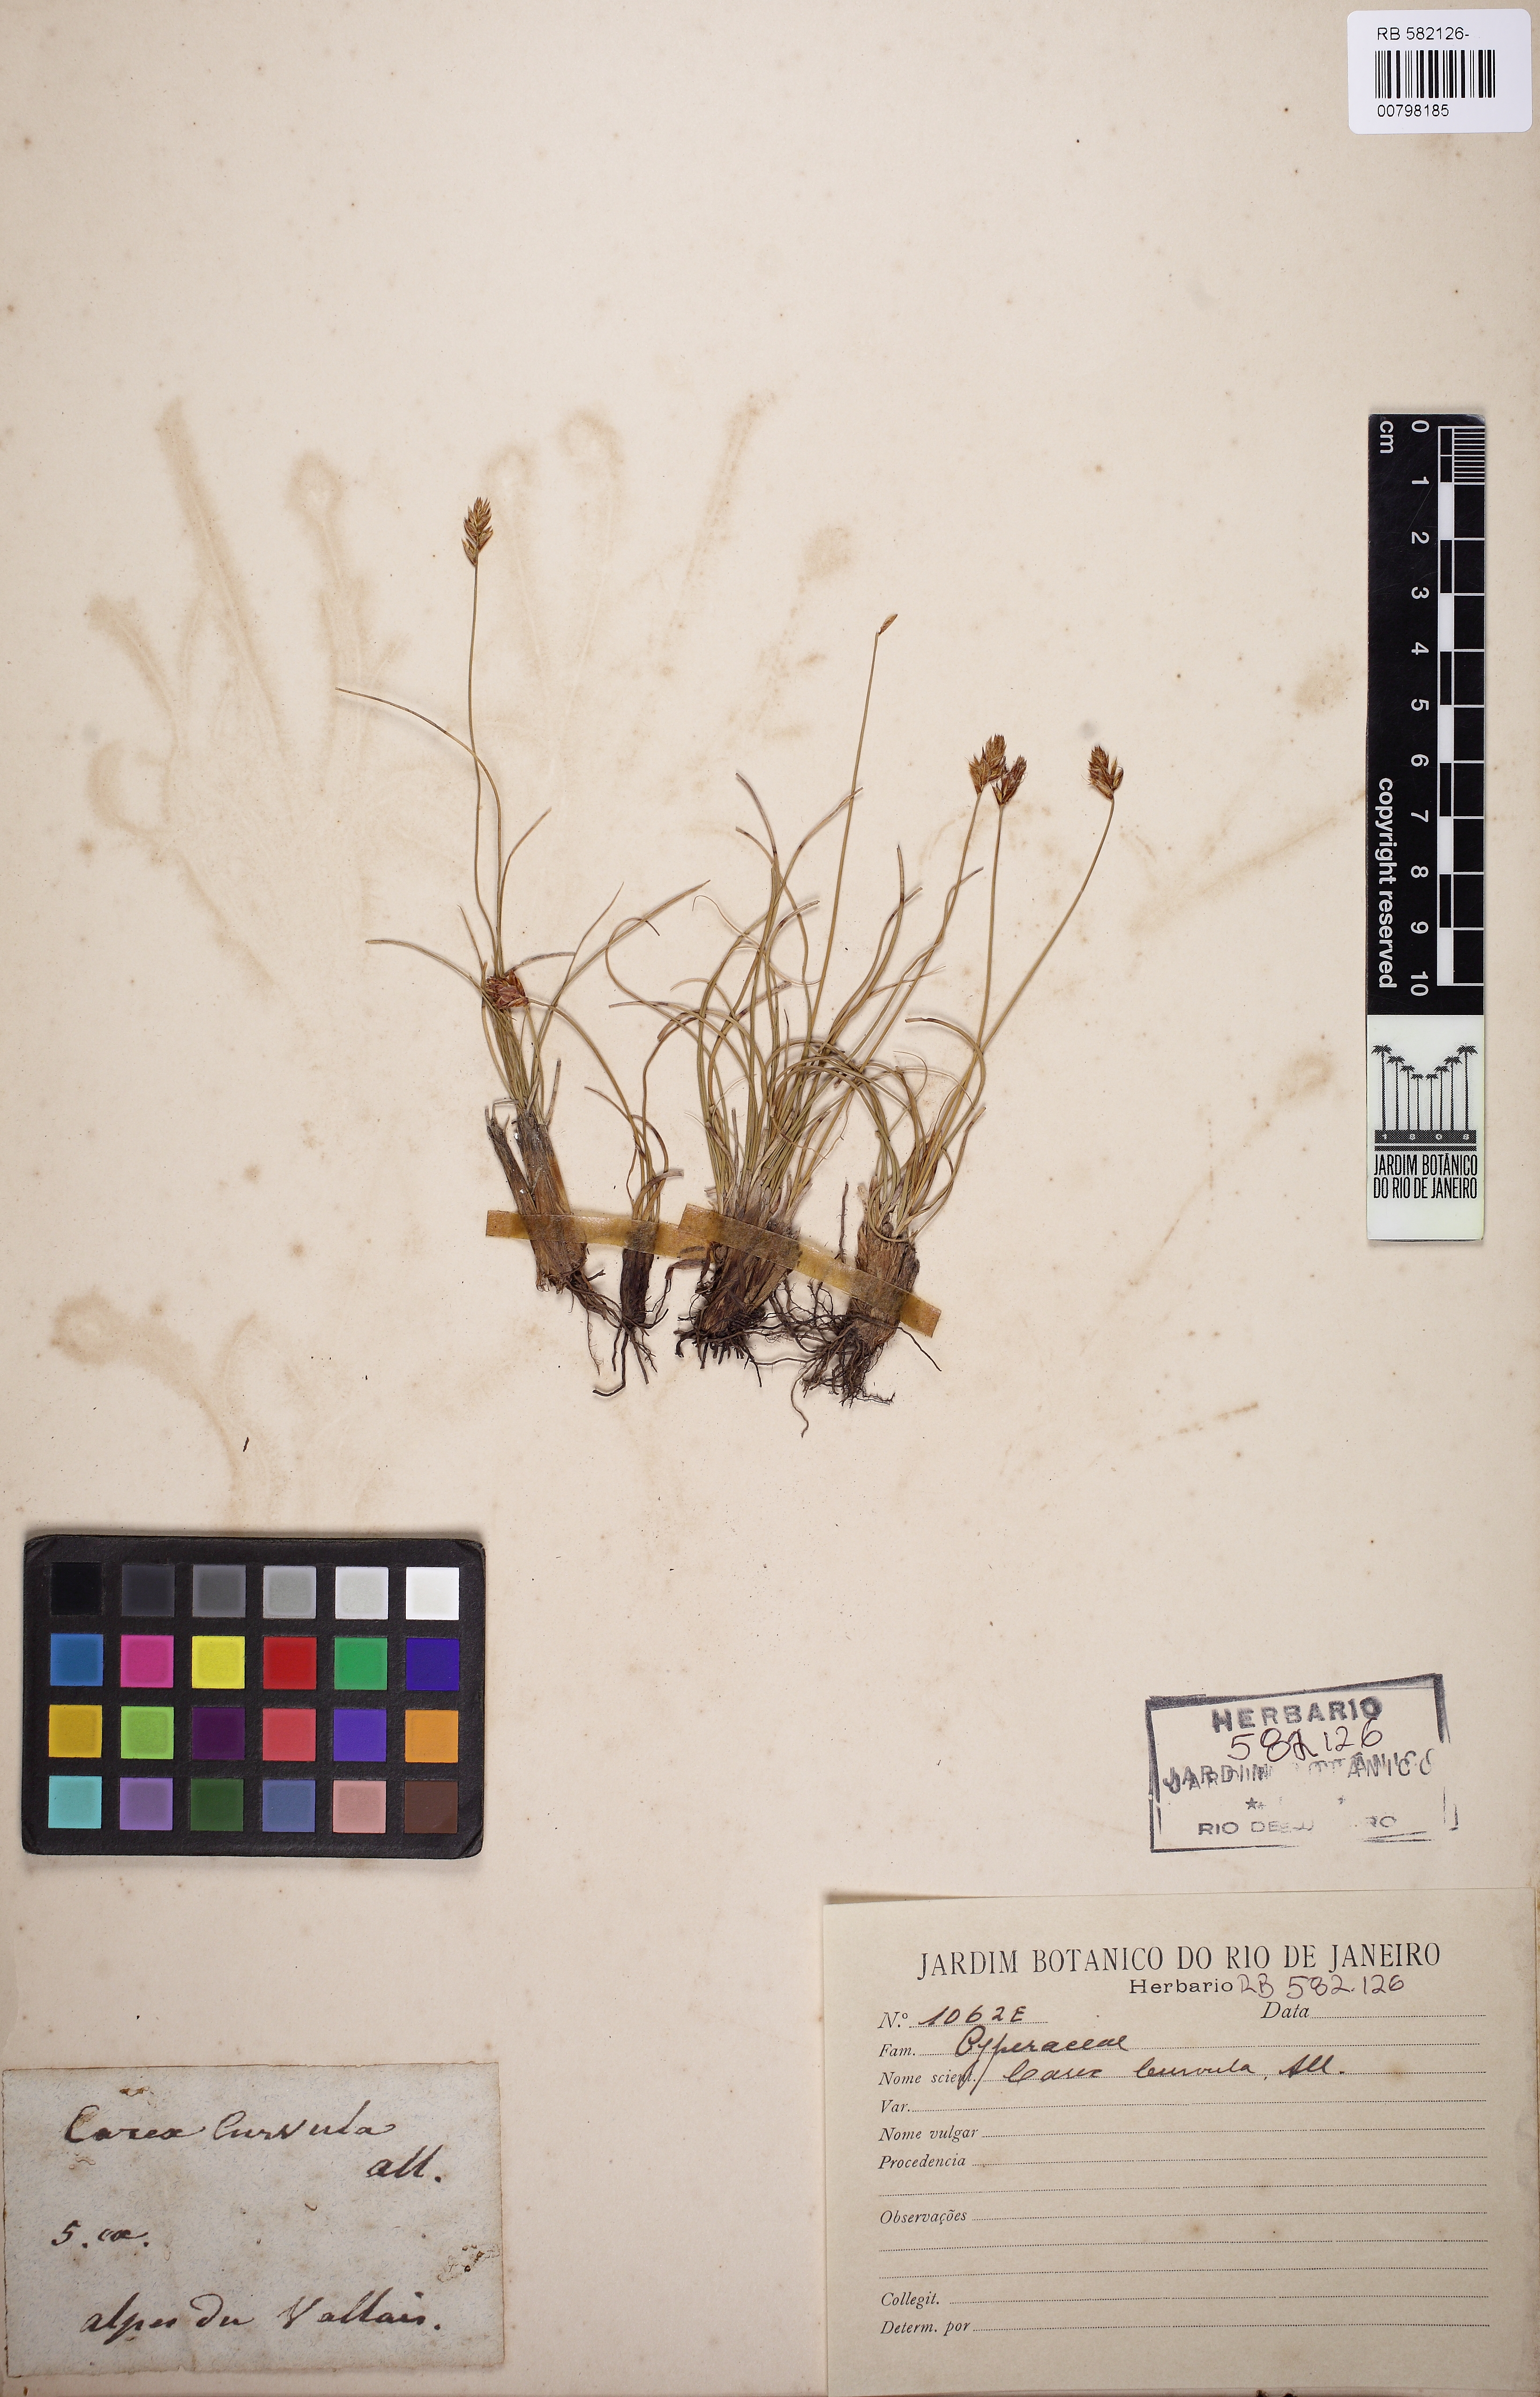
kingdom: Plantae
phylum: Tracheophyta
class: Liliopsida
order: Poales
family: Cyperaceae
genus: Carex
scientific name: Carex curvula
